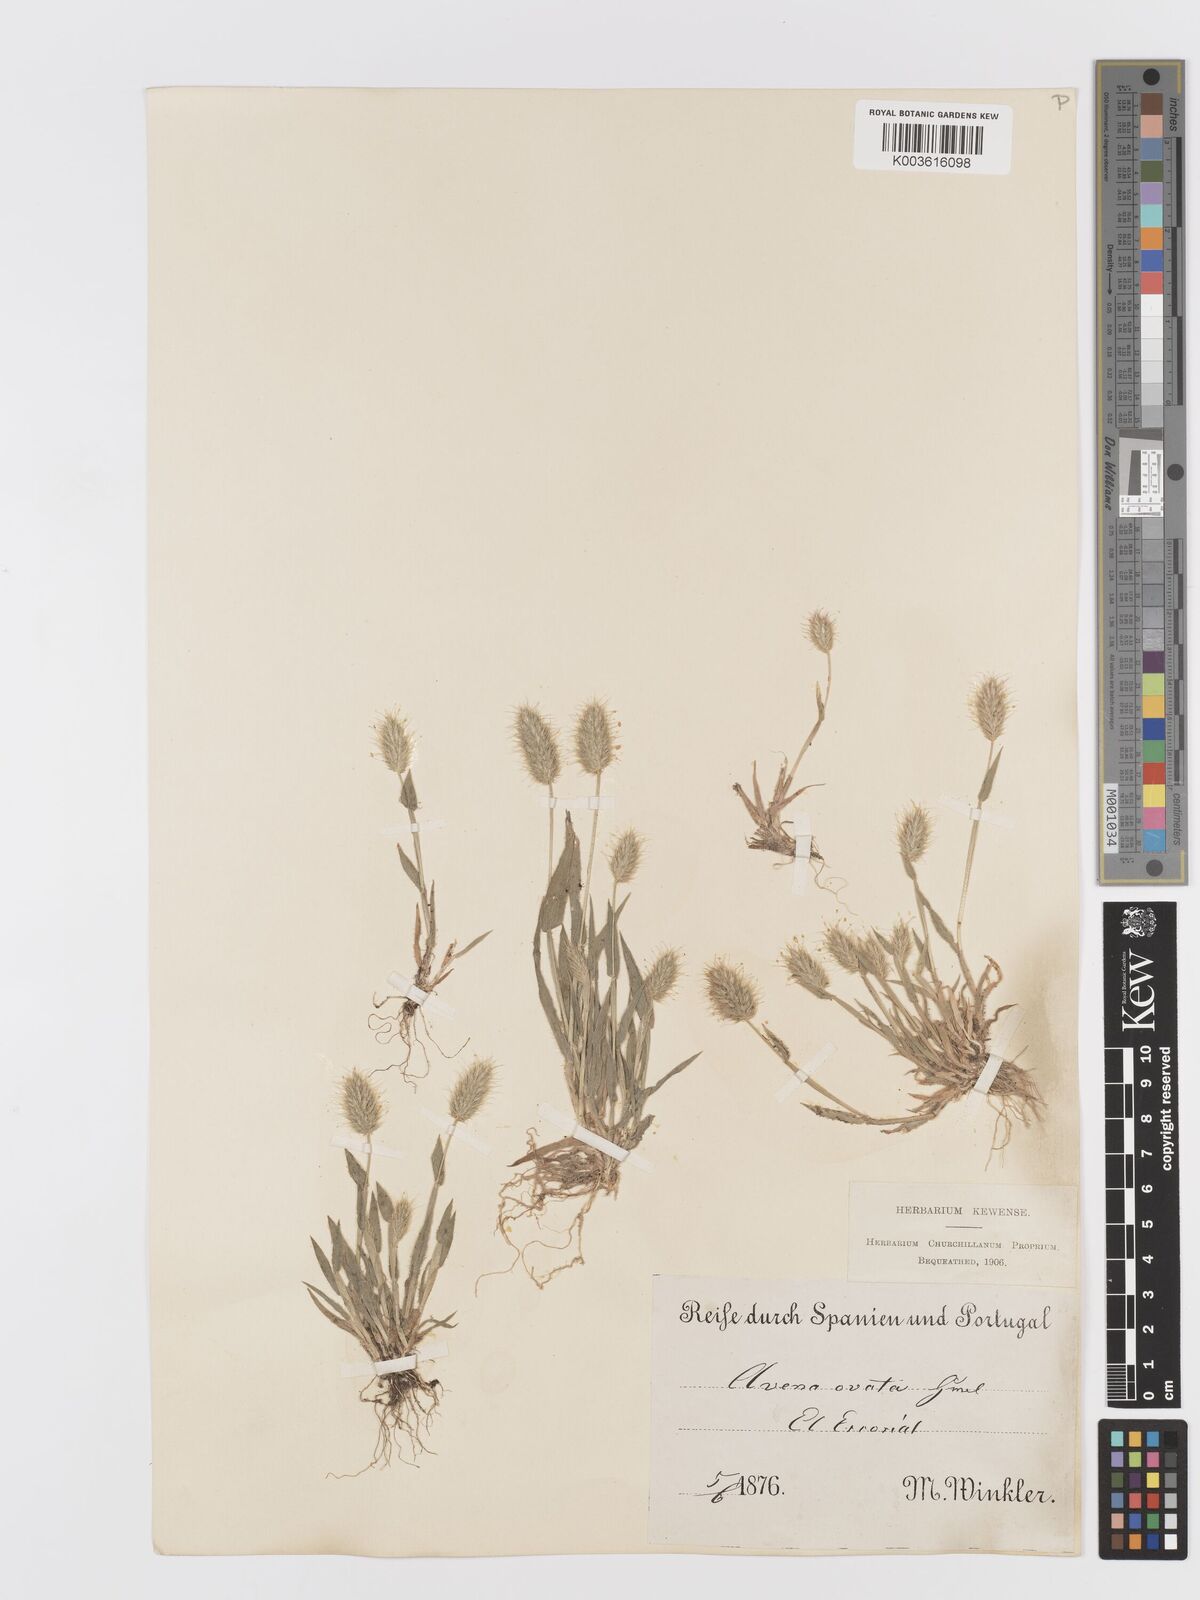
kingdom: Plantae
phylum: Tracheophyta
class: Liliopsida
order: Poales
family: Poaceae
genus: Trisetaria
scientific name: Trisetaria ovata
